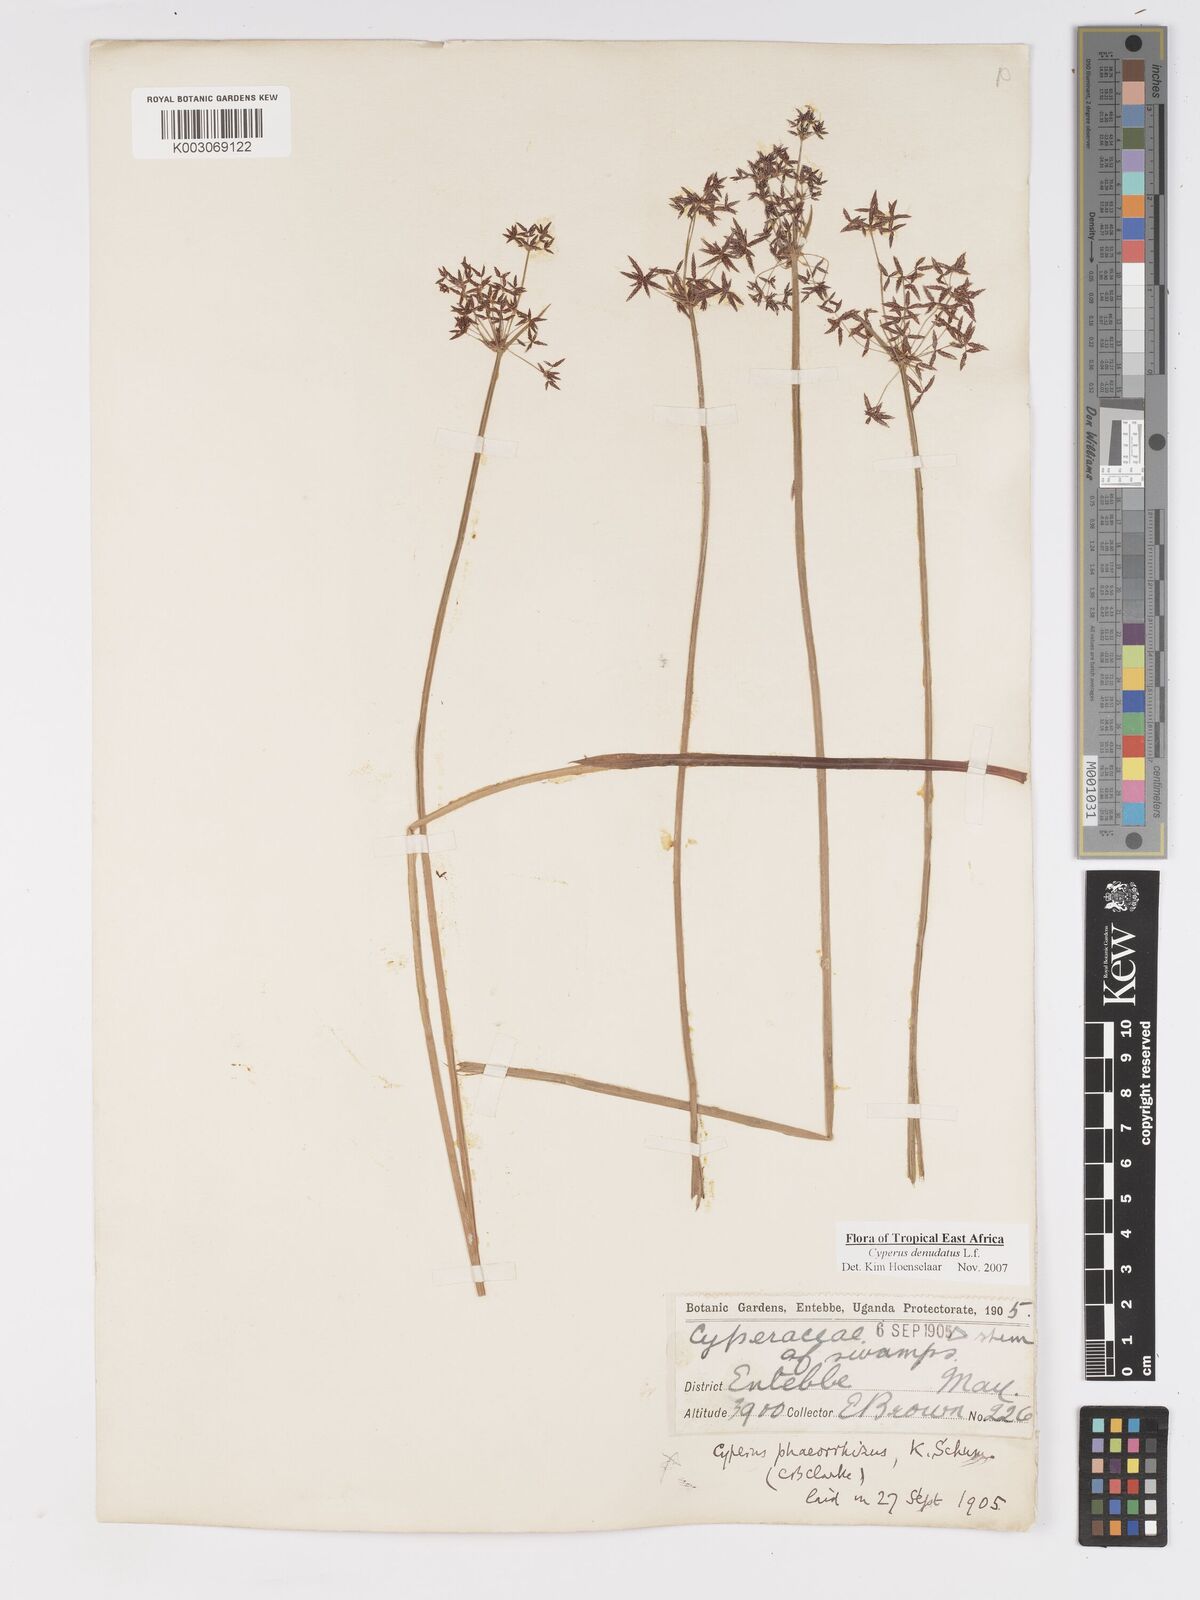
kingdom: Plantae
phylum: Tracheophyta
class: Liliopsida
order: Poales
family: Cyperaceae
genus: Cyperus
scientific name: Cyperus platycaulis
